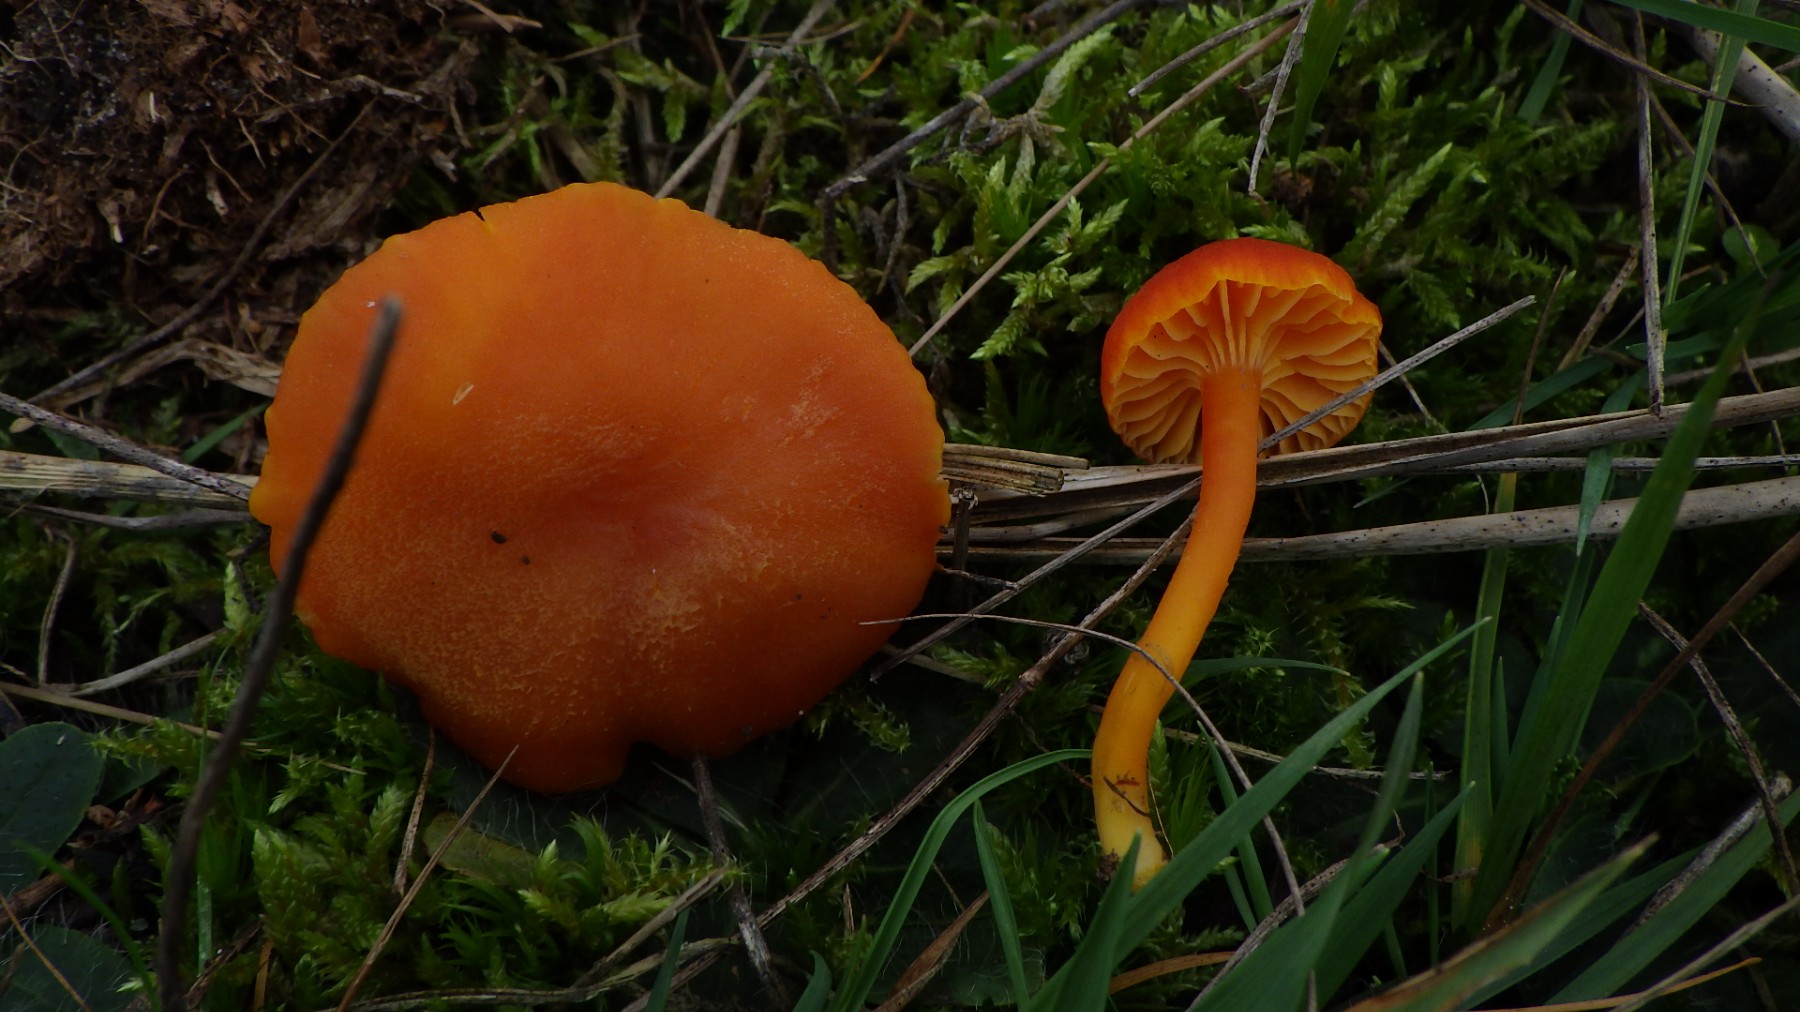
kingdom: Fungi
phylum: Basidiomycota
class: Agaricomycetes
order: Agaricales
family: Hygrophoraceae
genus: Hygrocybe
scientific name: Hygrocybe miniata
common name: mønje-vokshat
